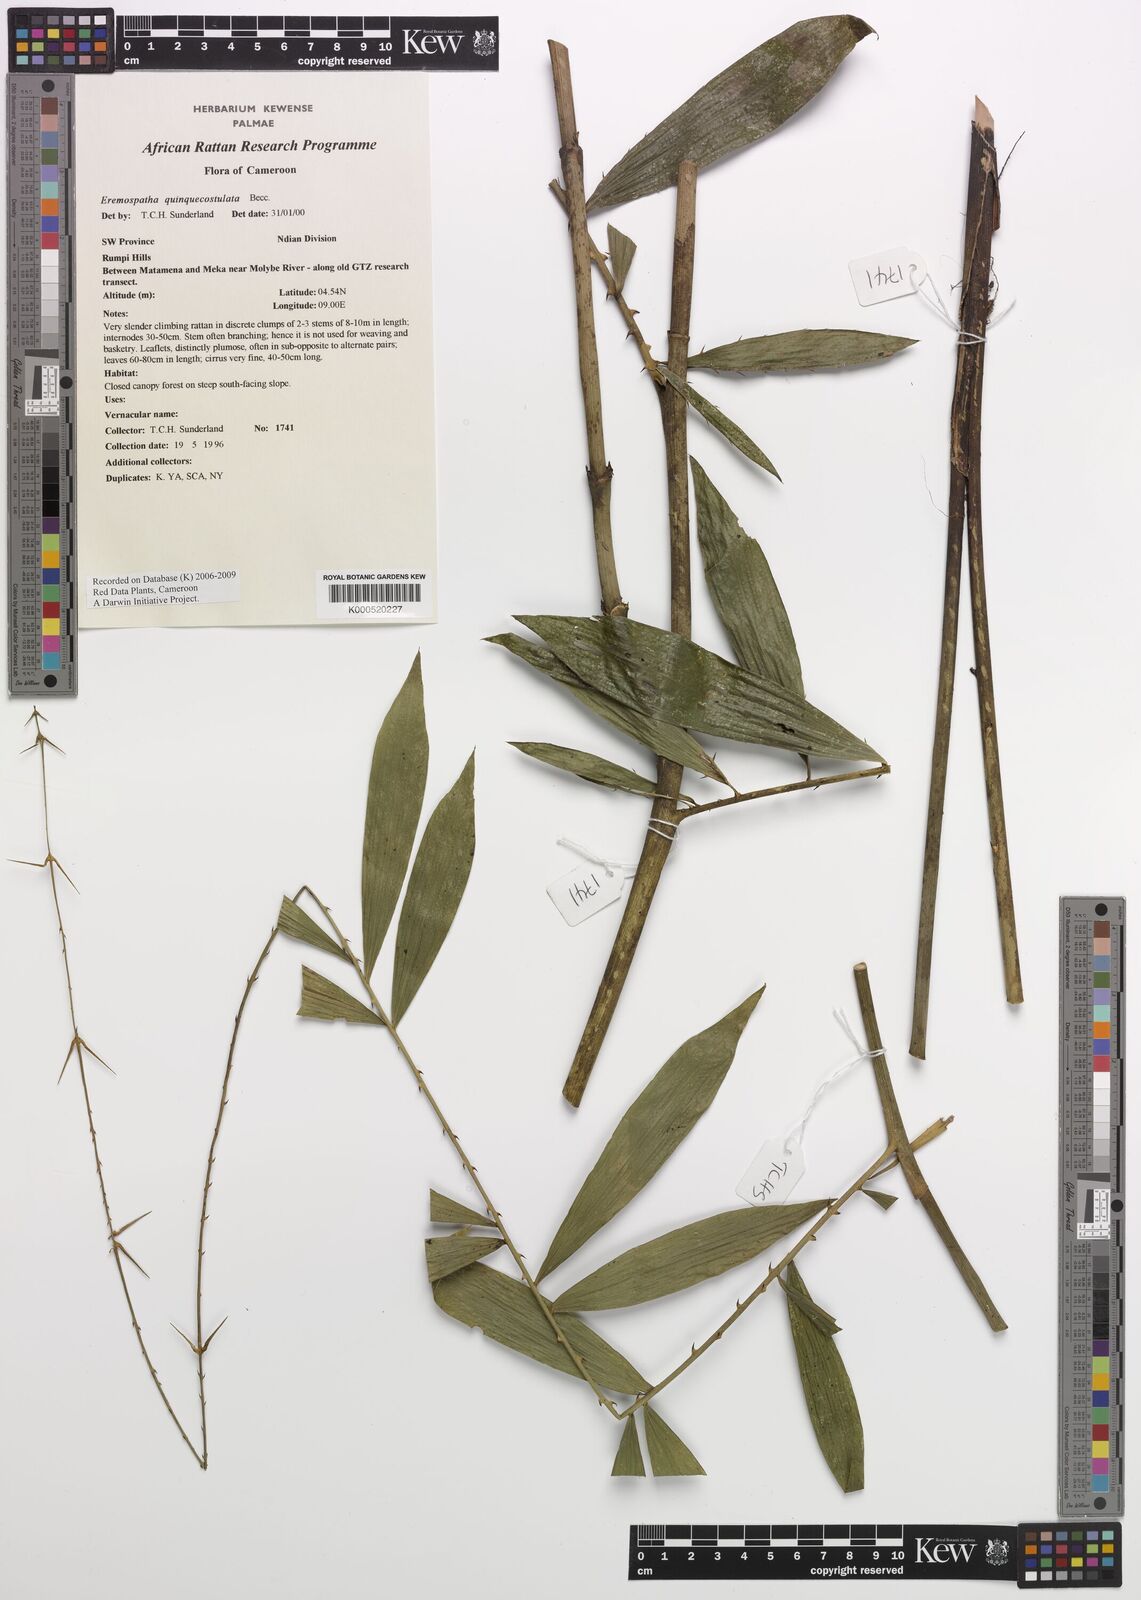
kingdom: Plantae
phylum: Tracheophyta
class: Liliopsida
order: Arecales
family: Arecaceae
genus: Eremospatha
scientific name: Eremospatha quinquecostulata
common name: Rattan
